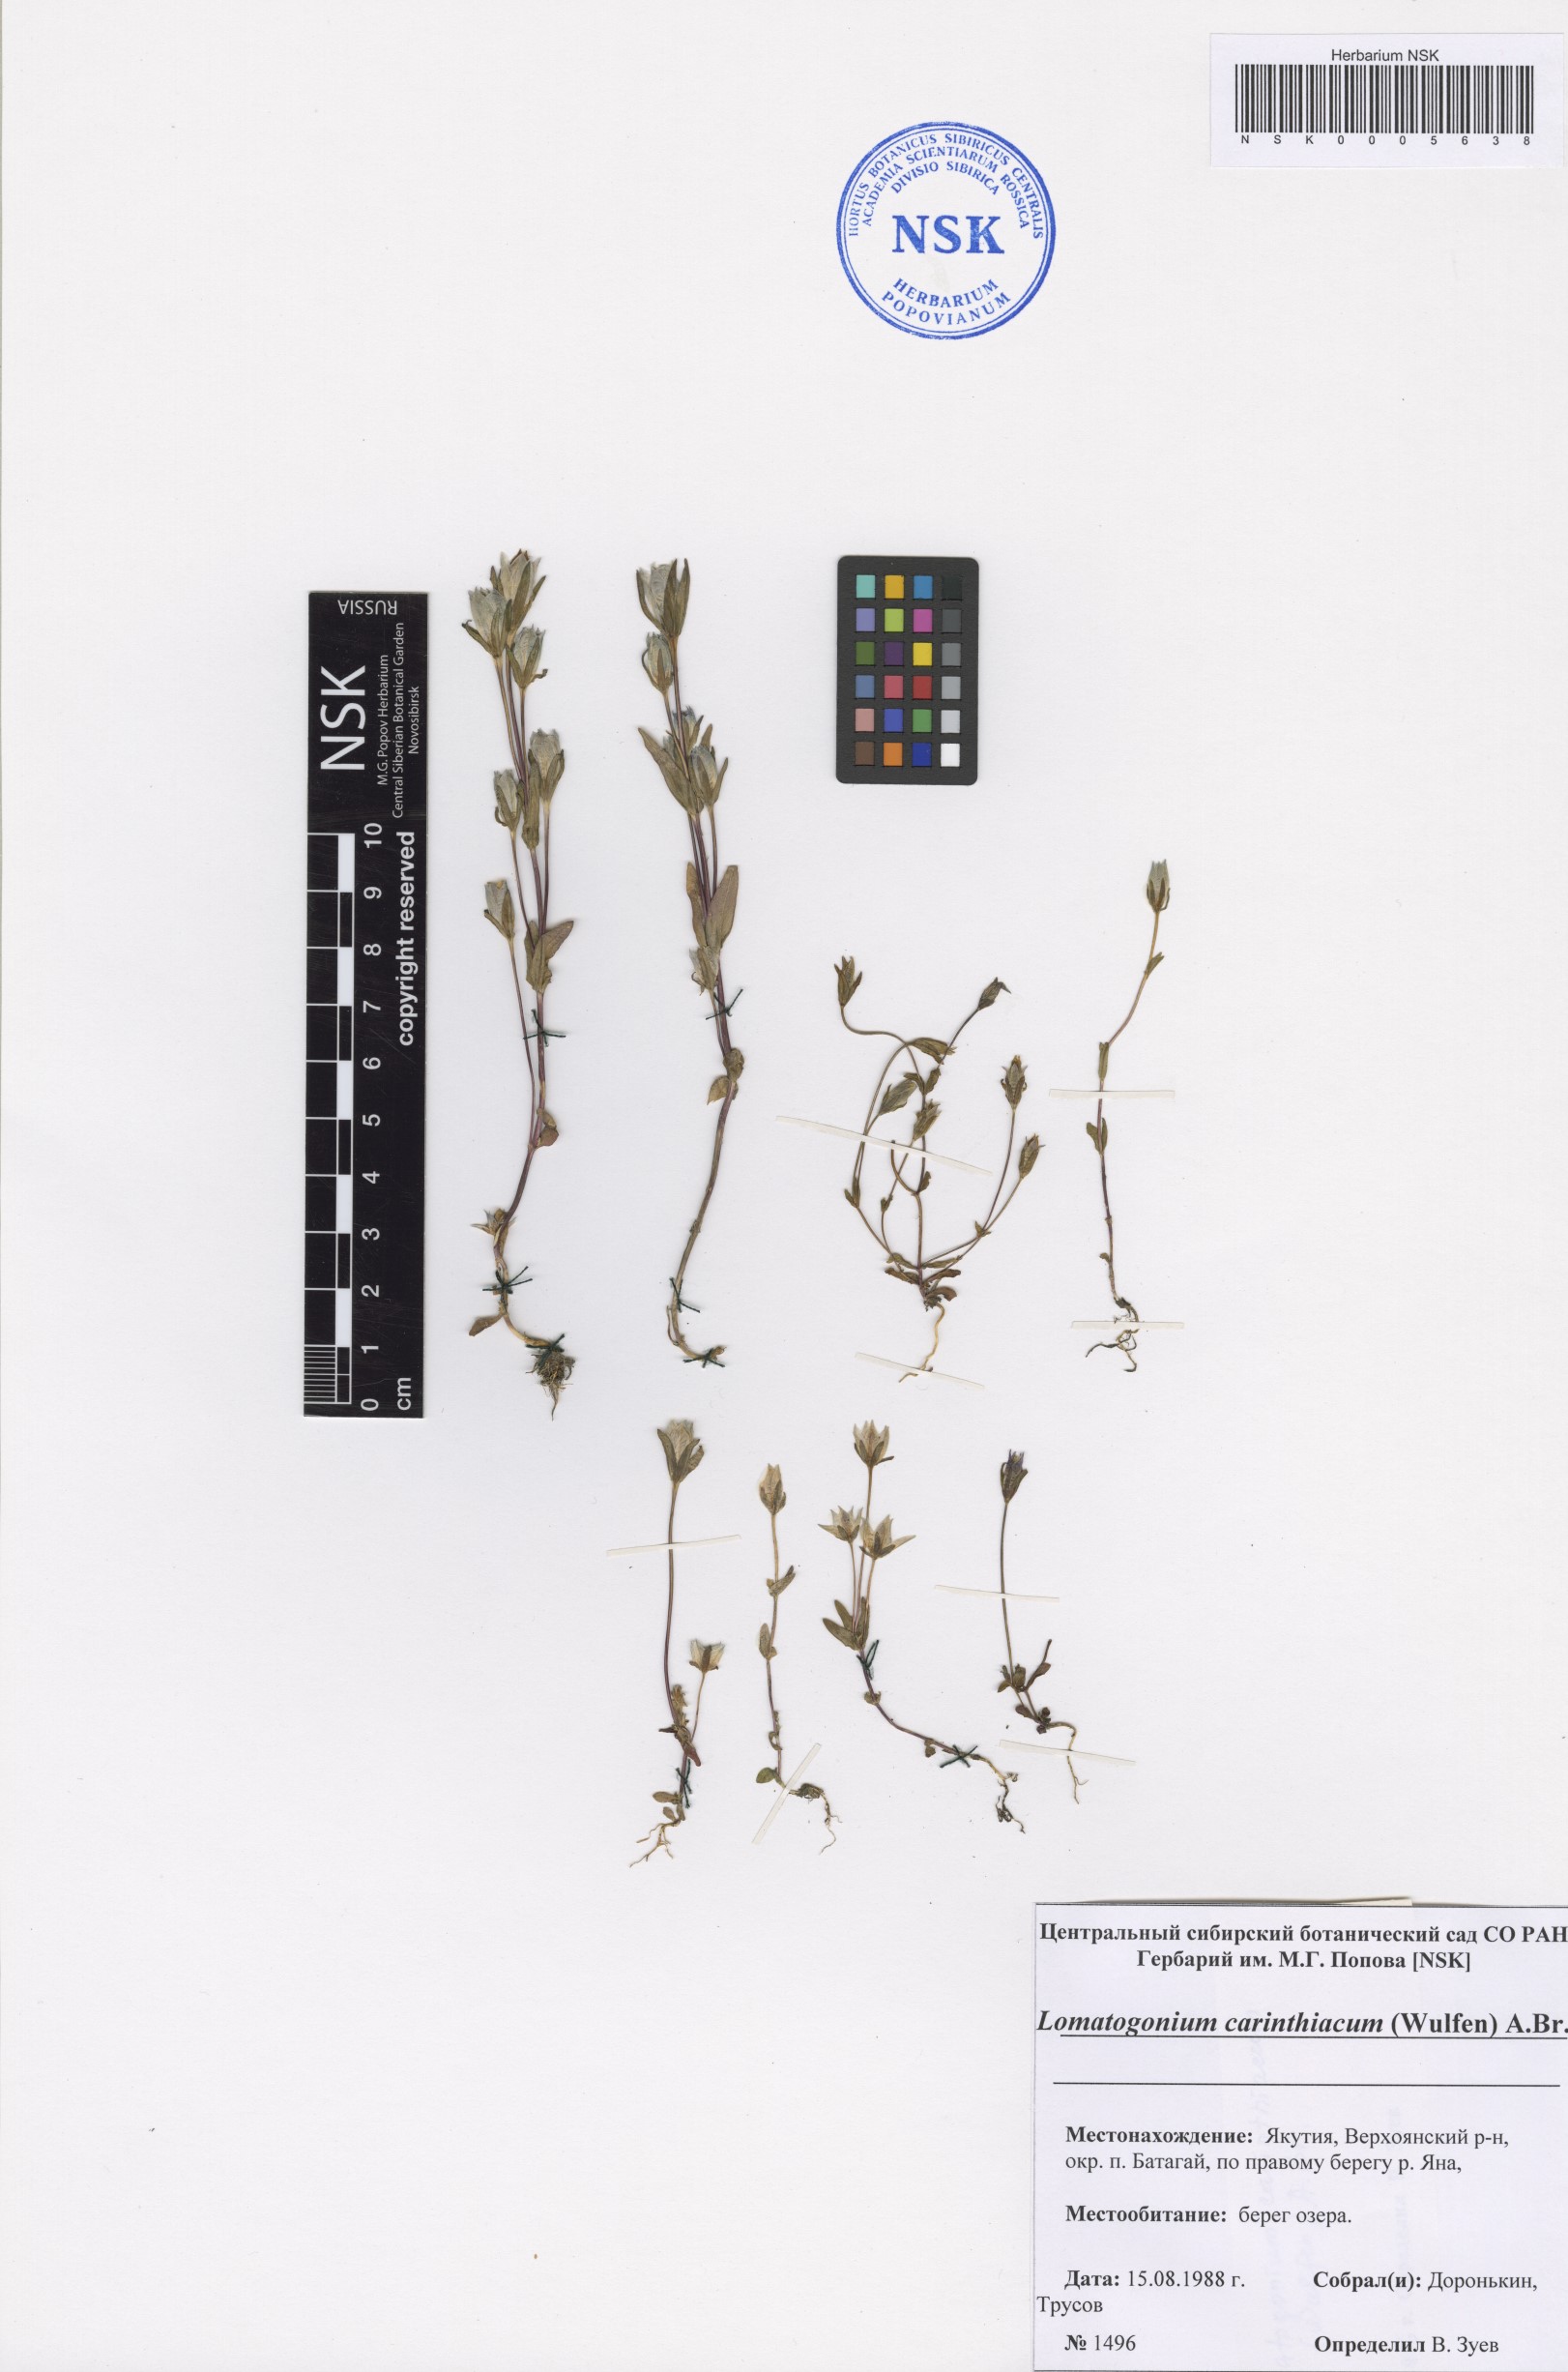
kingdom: Plantae
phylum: Tracheophyta
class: Magnoliopsida
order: Gentianales
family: Gentianaceae
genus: Lomatogonium
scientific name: Lomatogonium carinthiacum
